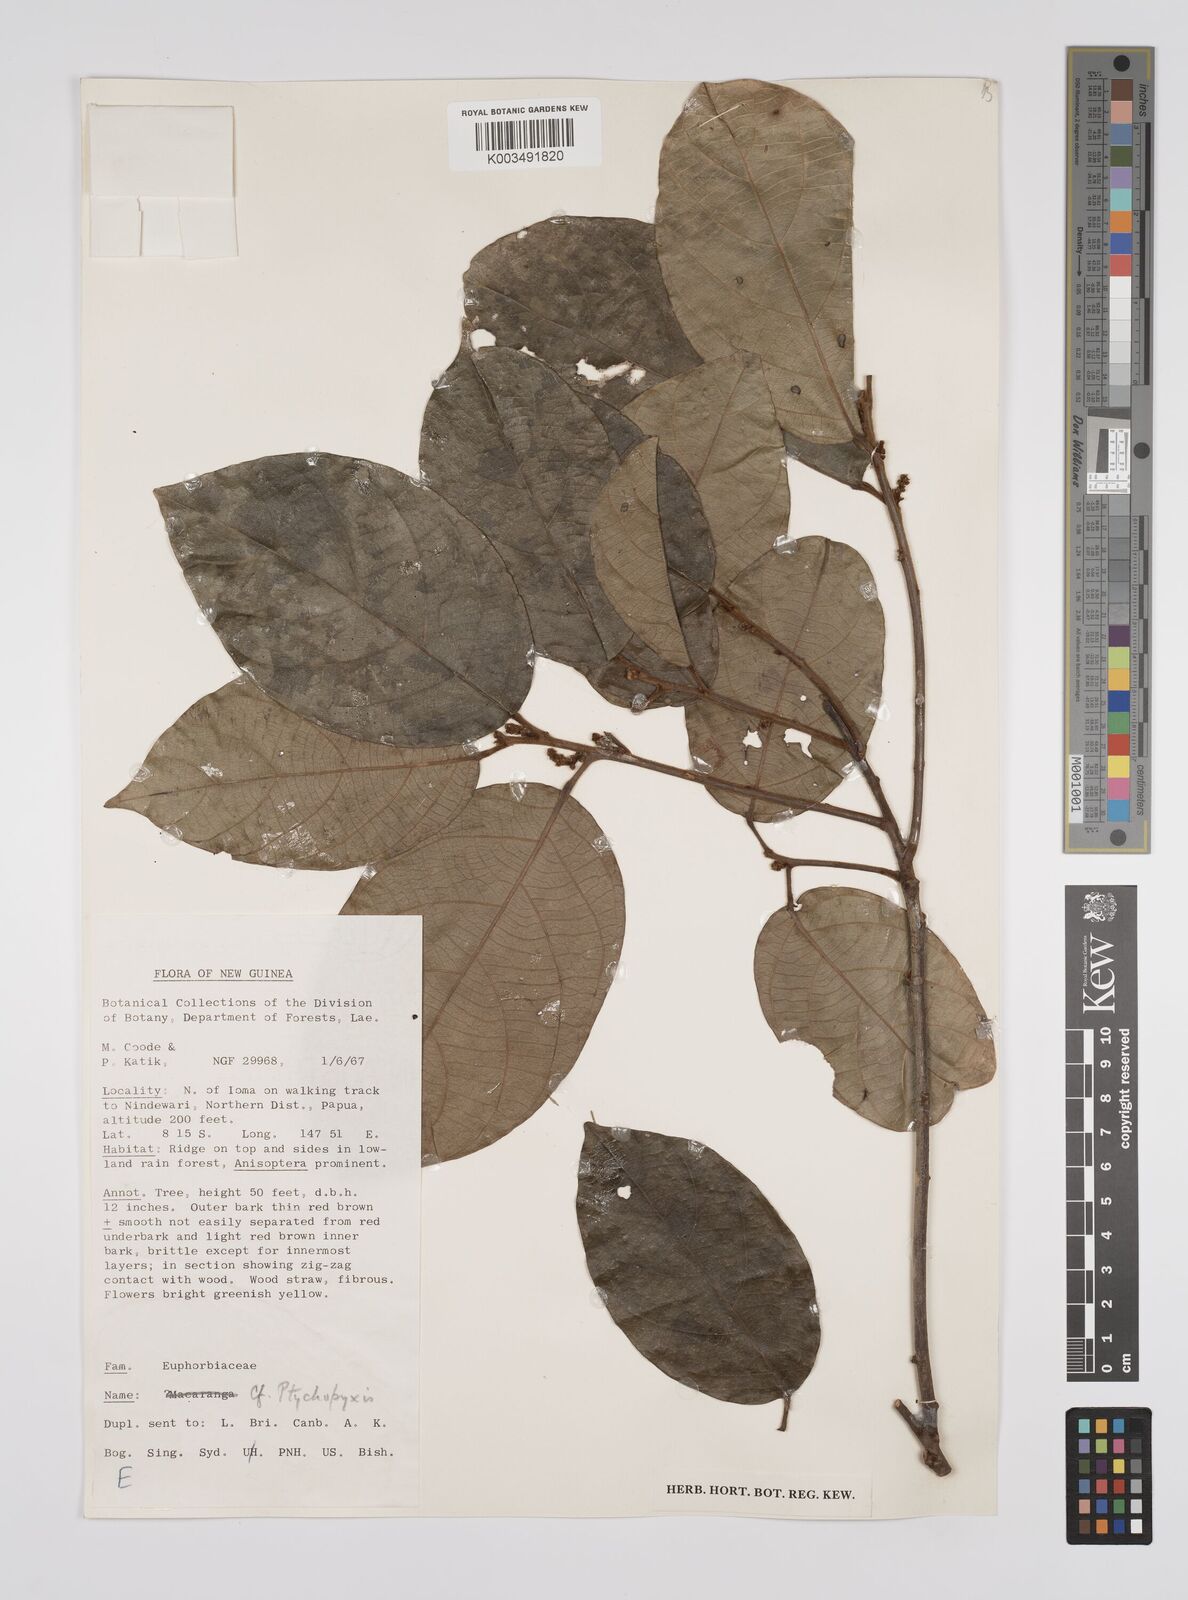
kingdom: Plantae
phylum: Tracheophyta
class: Magnoliopsida
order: Malpighiales
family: Euphorbiaceae
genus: Ptychopyxis
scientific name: Ptychopyxis chrysantha
